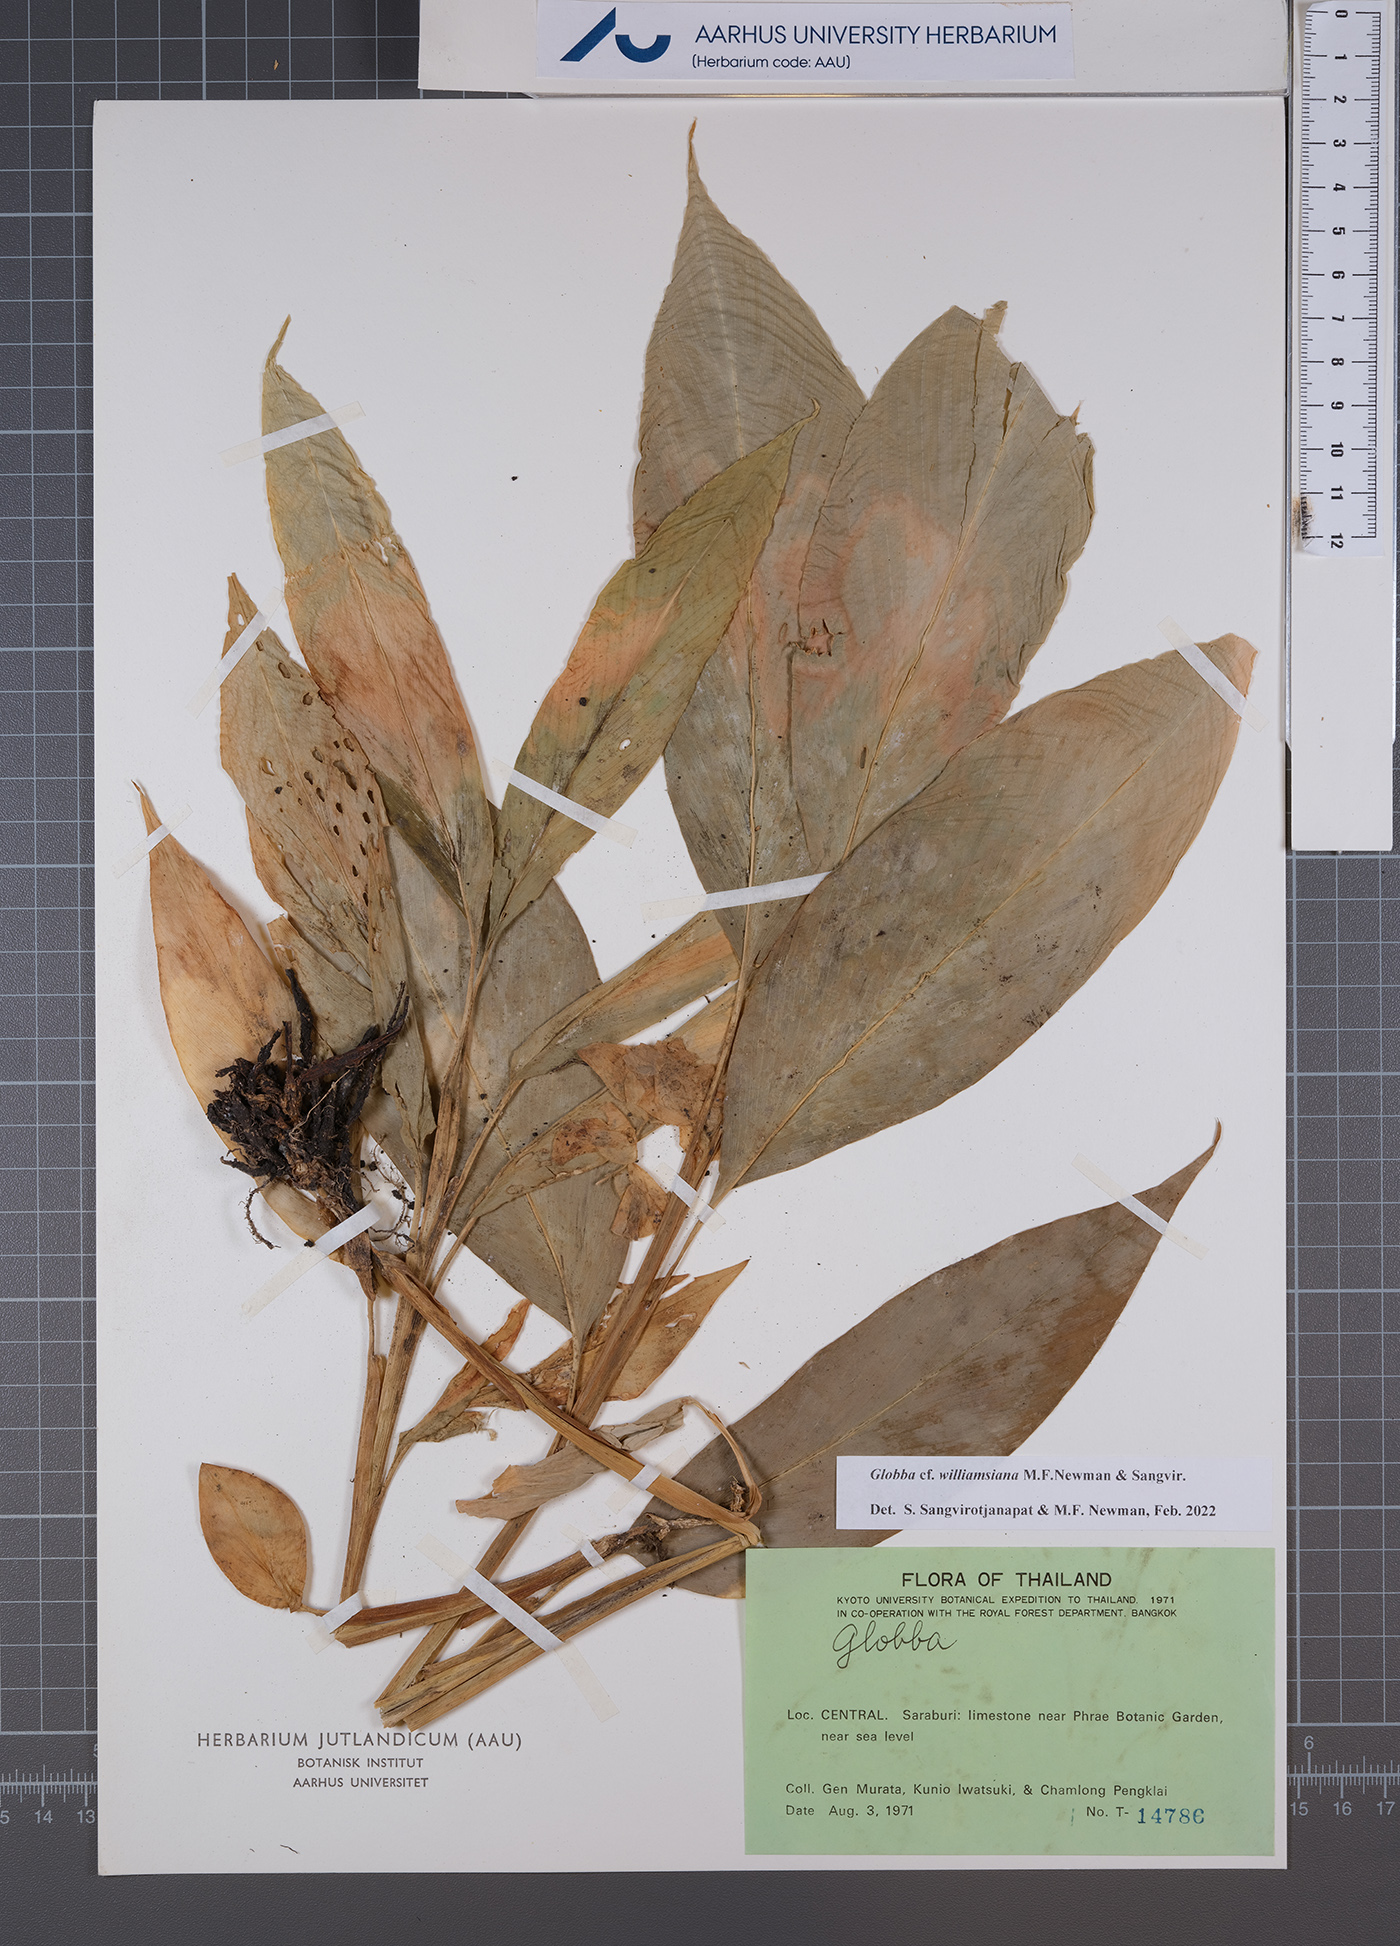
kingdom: Plantae
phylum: Tracheophyta
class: Liliopsida
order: Zingiberales
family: Zingiberaceae
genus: Globba
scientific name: Globba williamsiana
